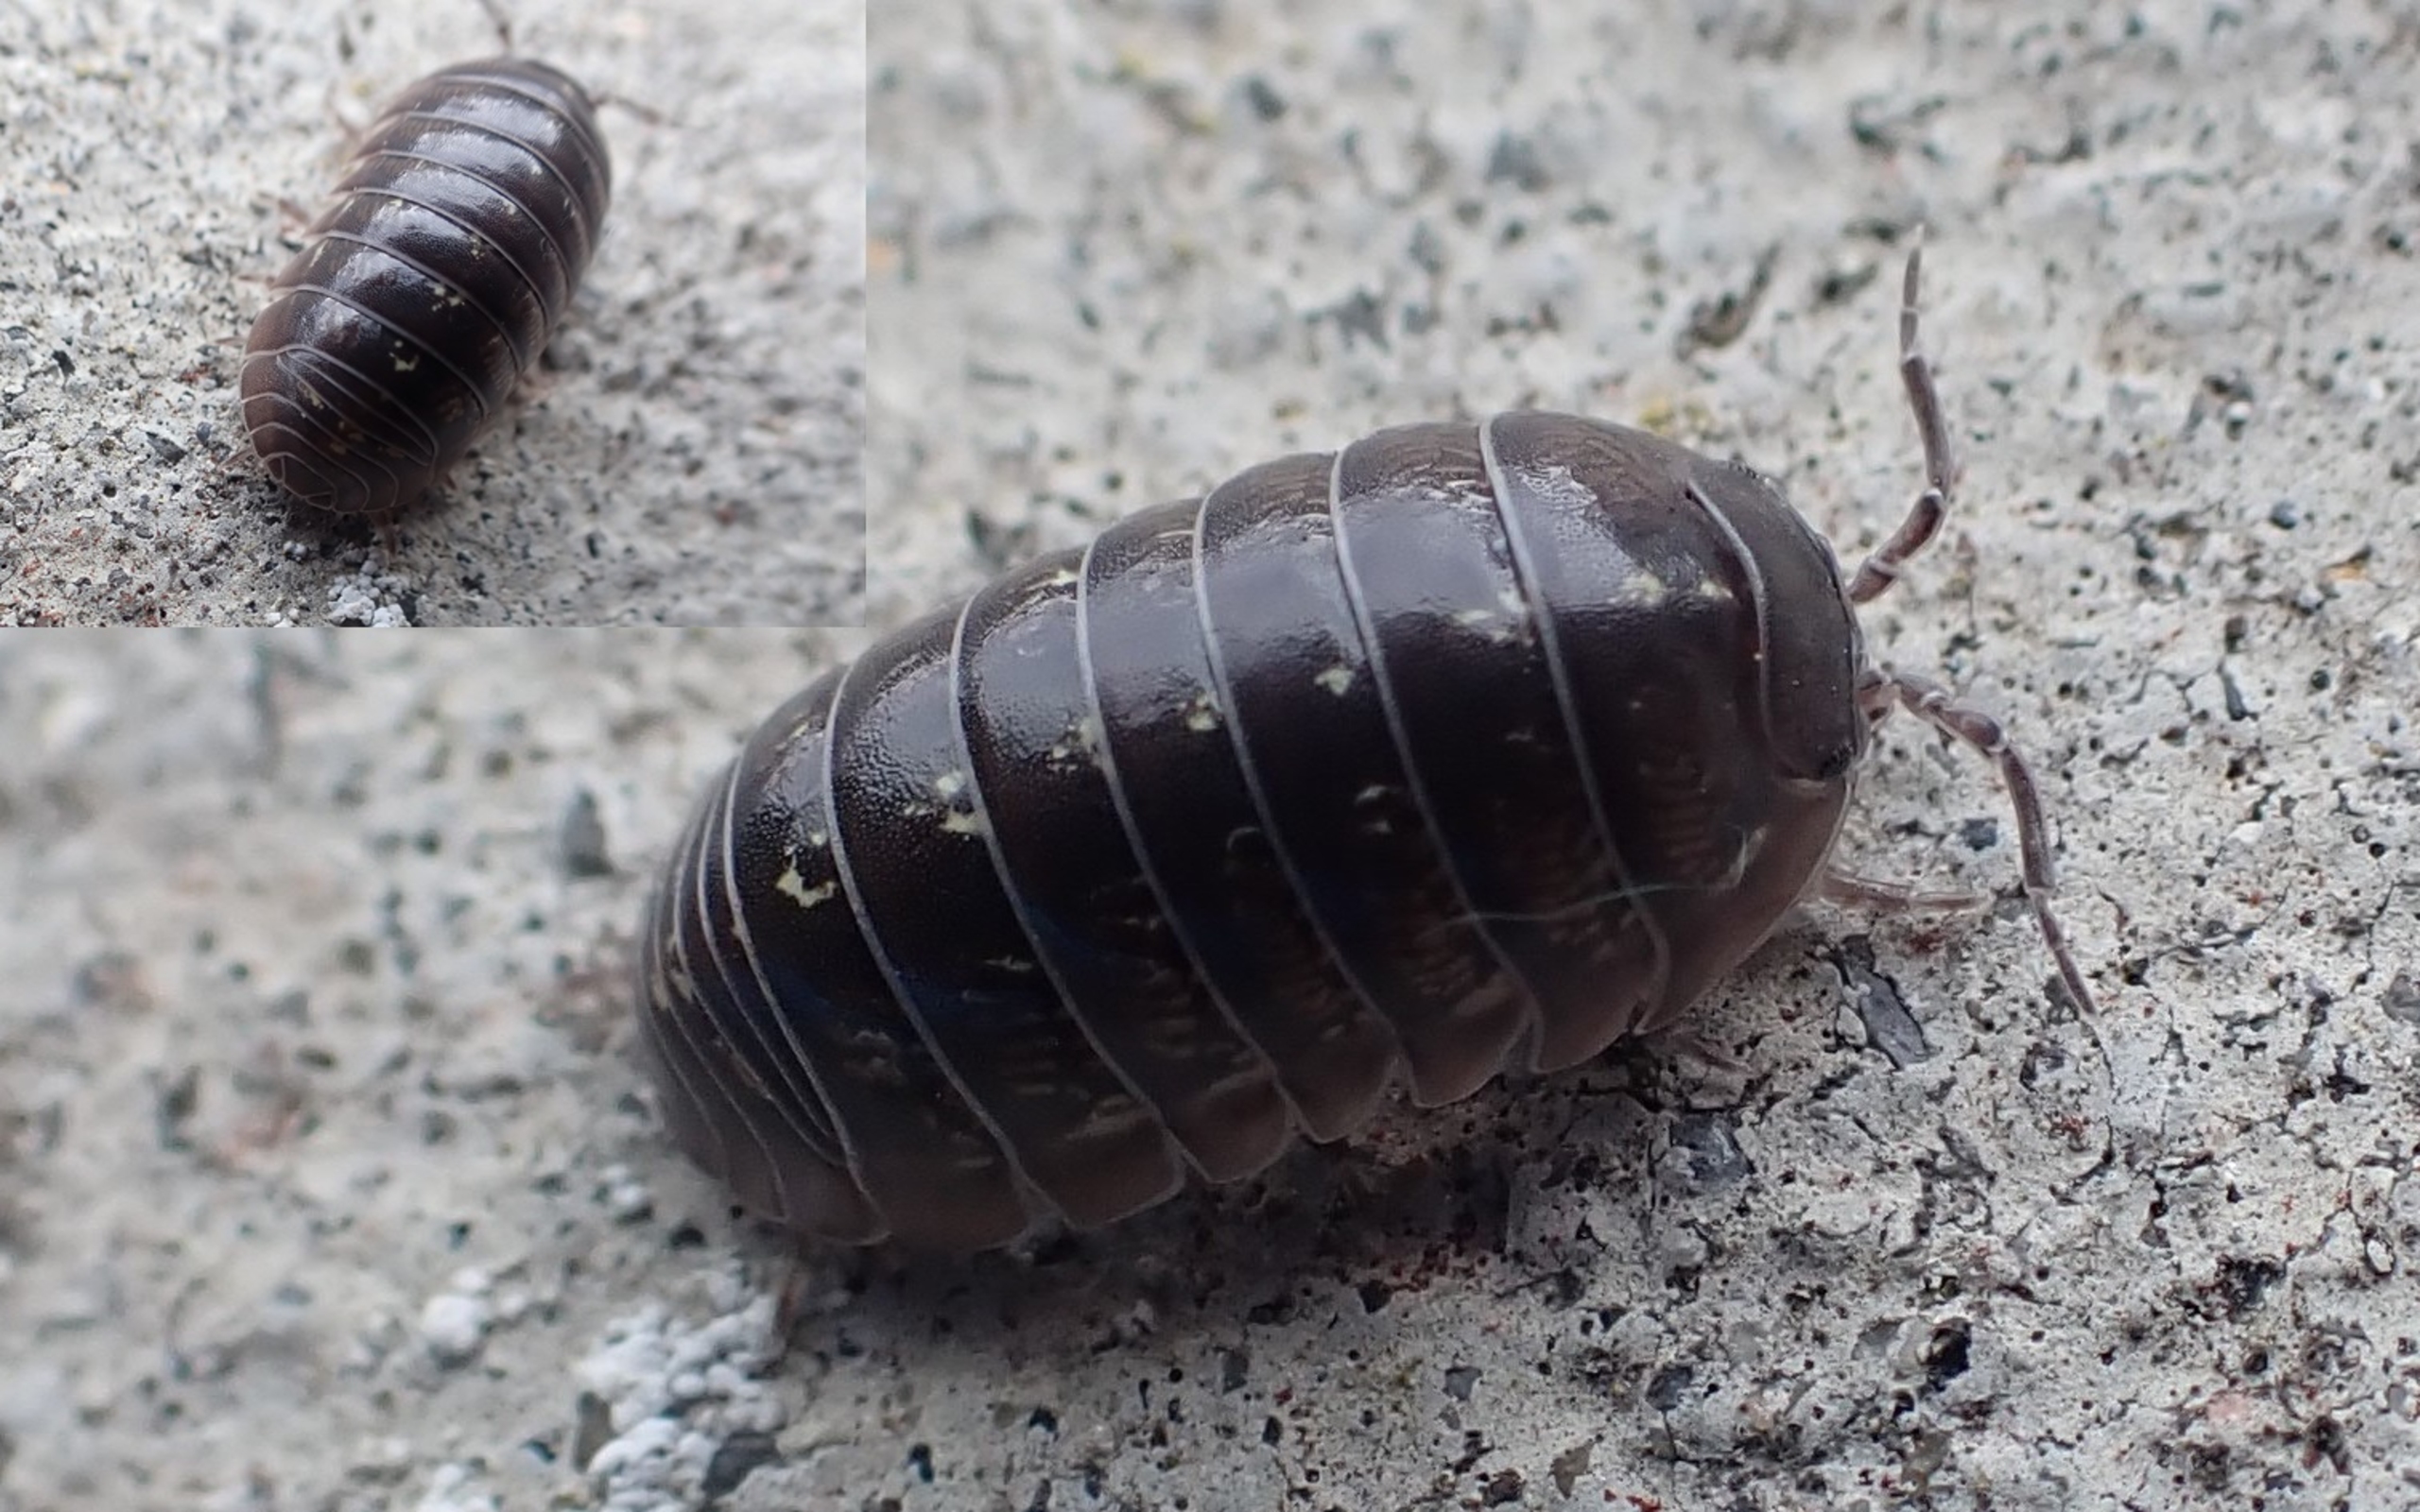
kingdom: Animalia
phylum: Arthropoda
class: Malacostraca
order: Isopoda
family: Armadillidiidae
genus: Armadillidium
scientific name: Armadillidium vulgare
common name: Almindelig kuglebænkebider
